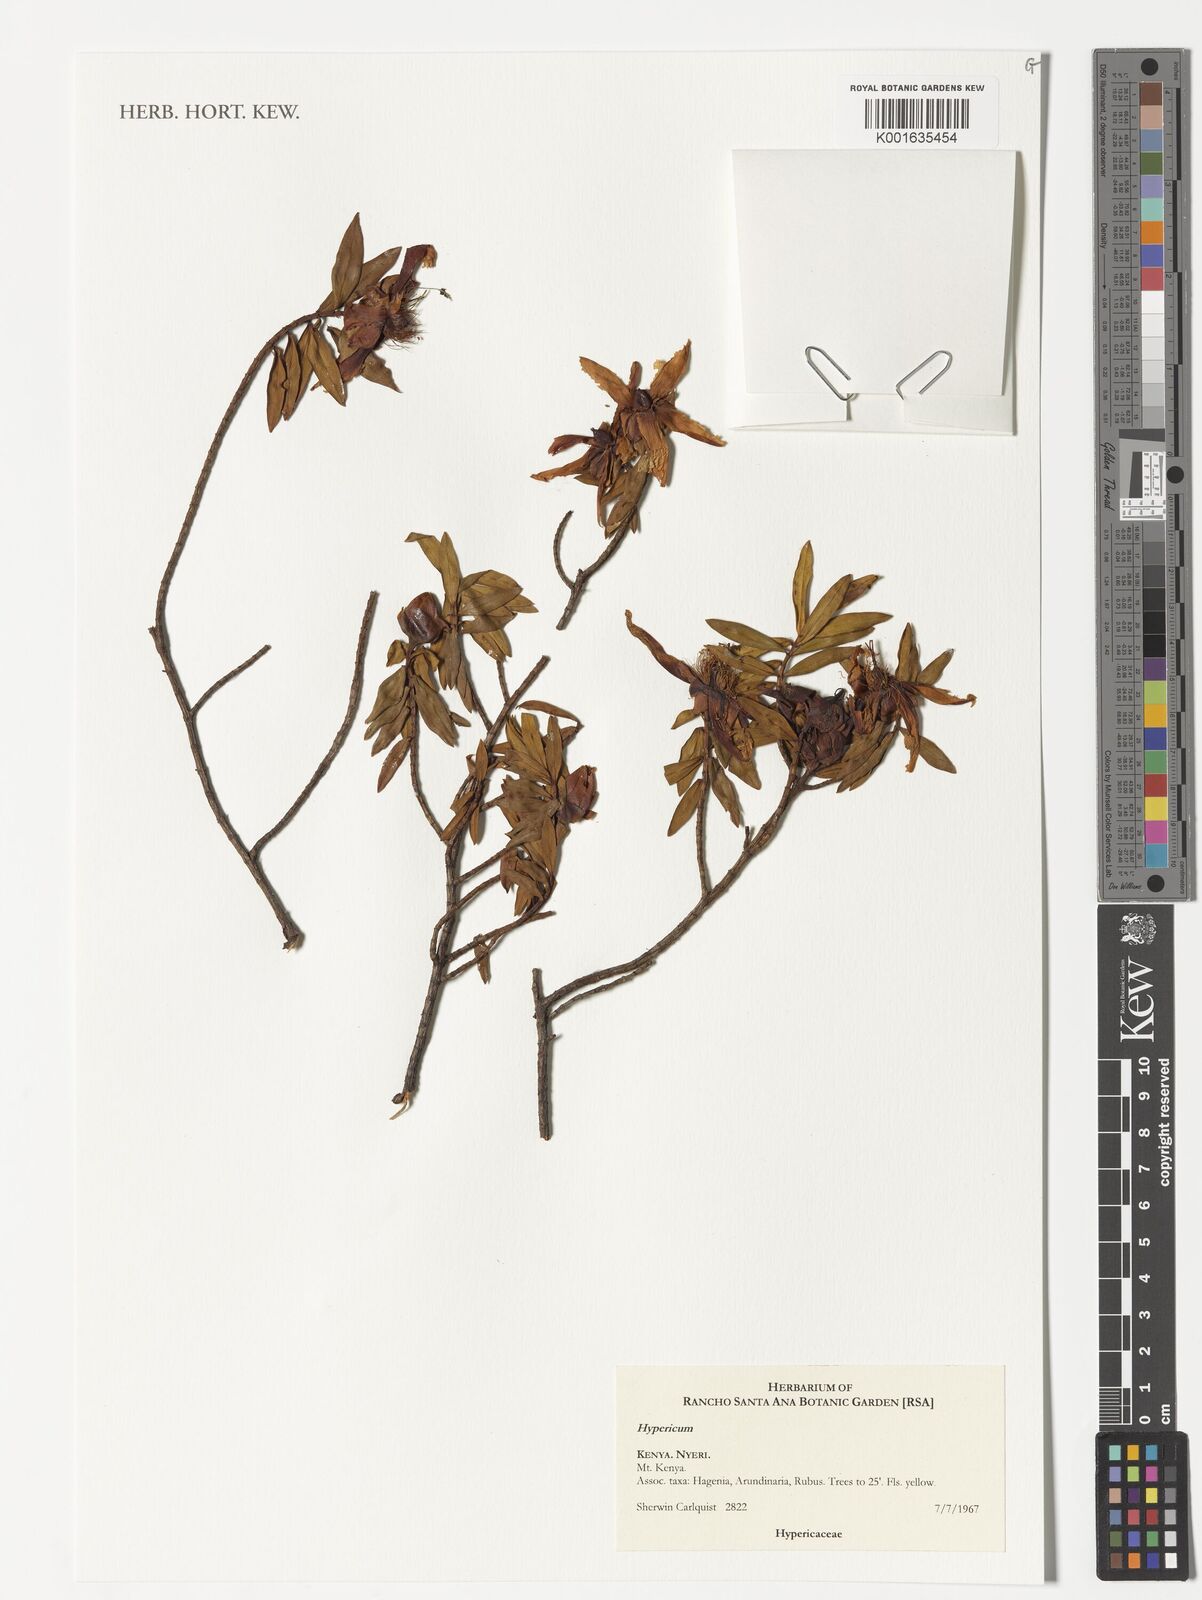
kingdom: Plantae
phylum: Tracheophyta
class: Magnoliopsida
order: Malpighiales
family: Hypericaceae
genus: Hypericum
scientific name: Hypericum
